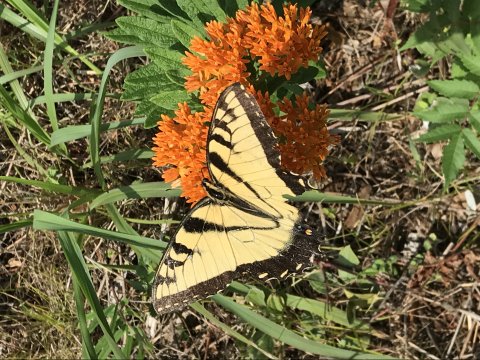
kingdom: Animalia
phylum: Arthropoda
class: Insecta
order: Lepidoptera
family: Papilionidae
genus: Pterourus
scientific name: Pterourus glaucus
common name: Eastern Tiger Swallowtail
